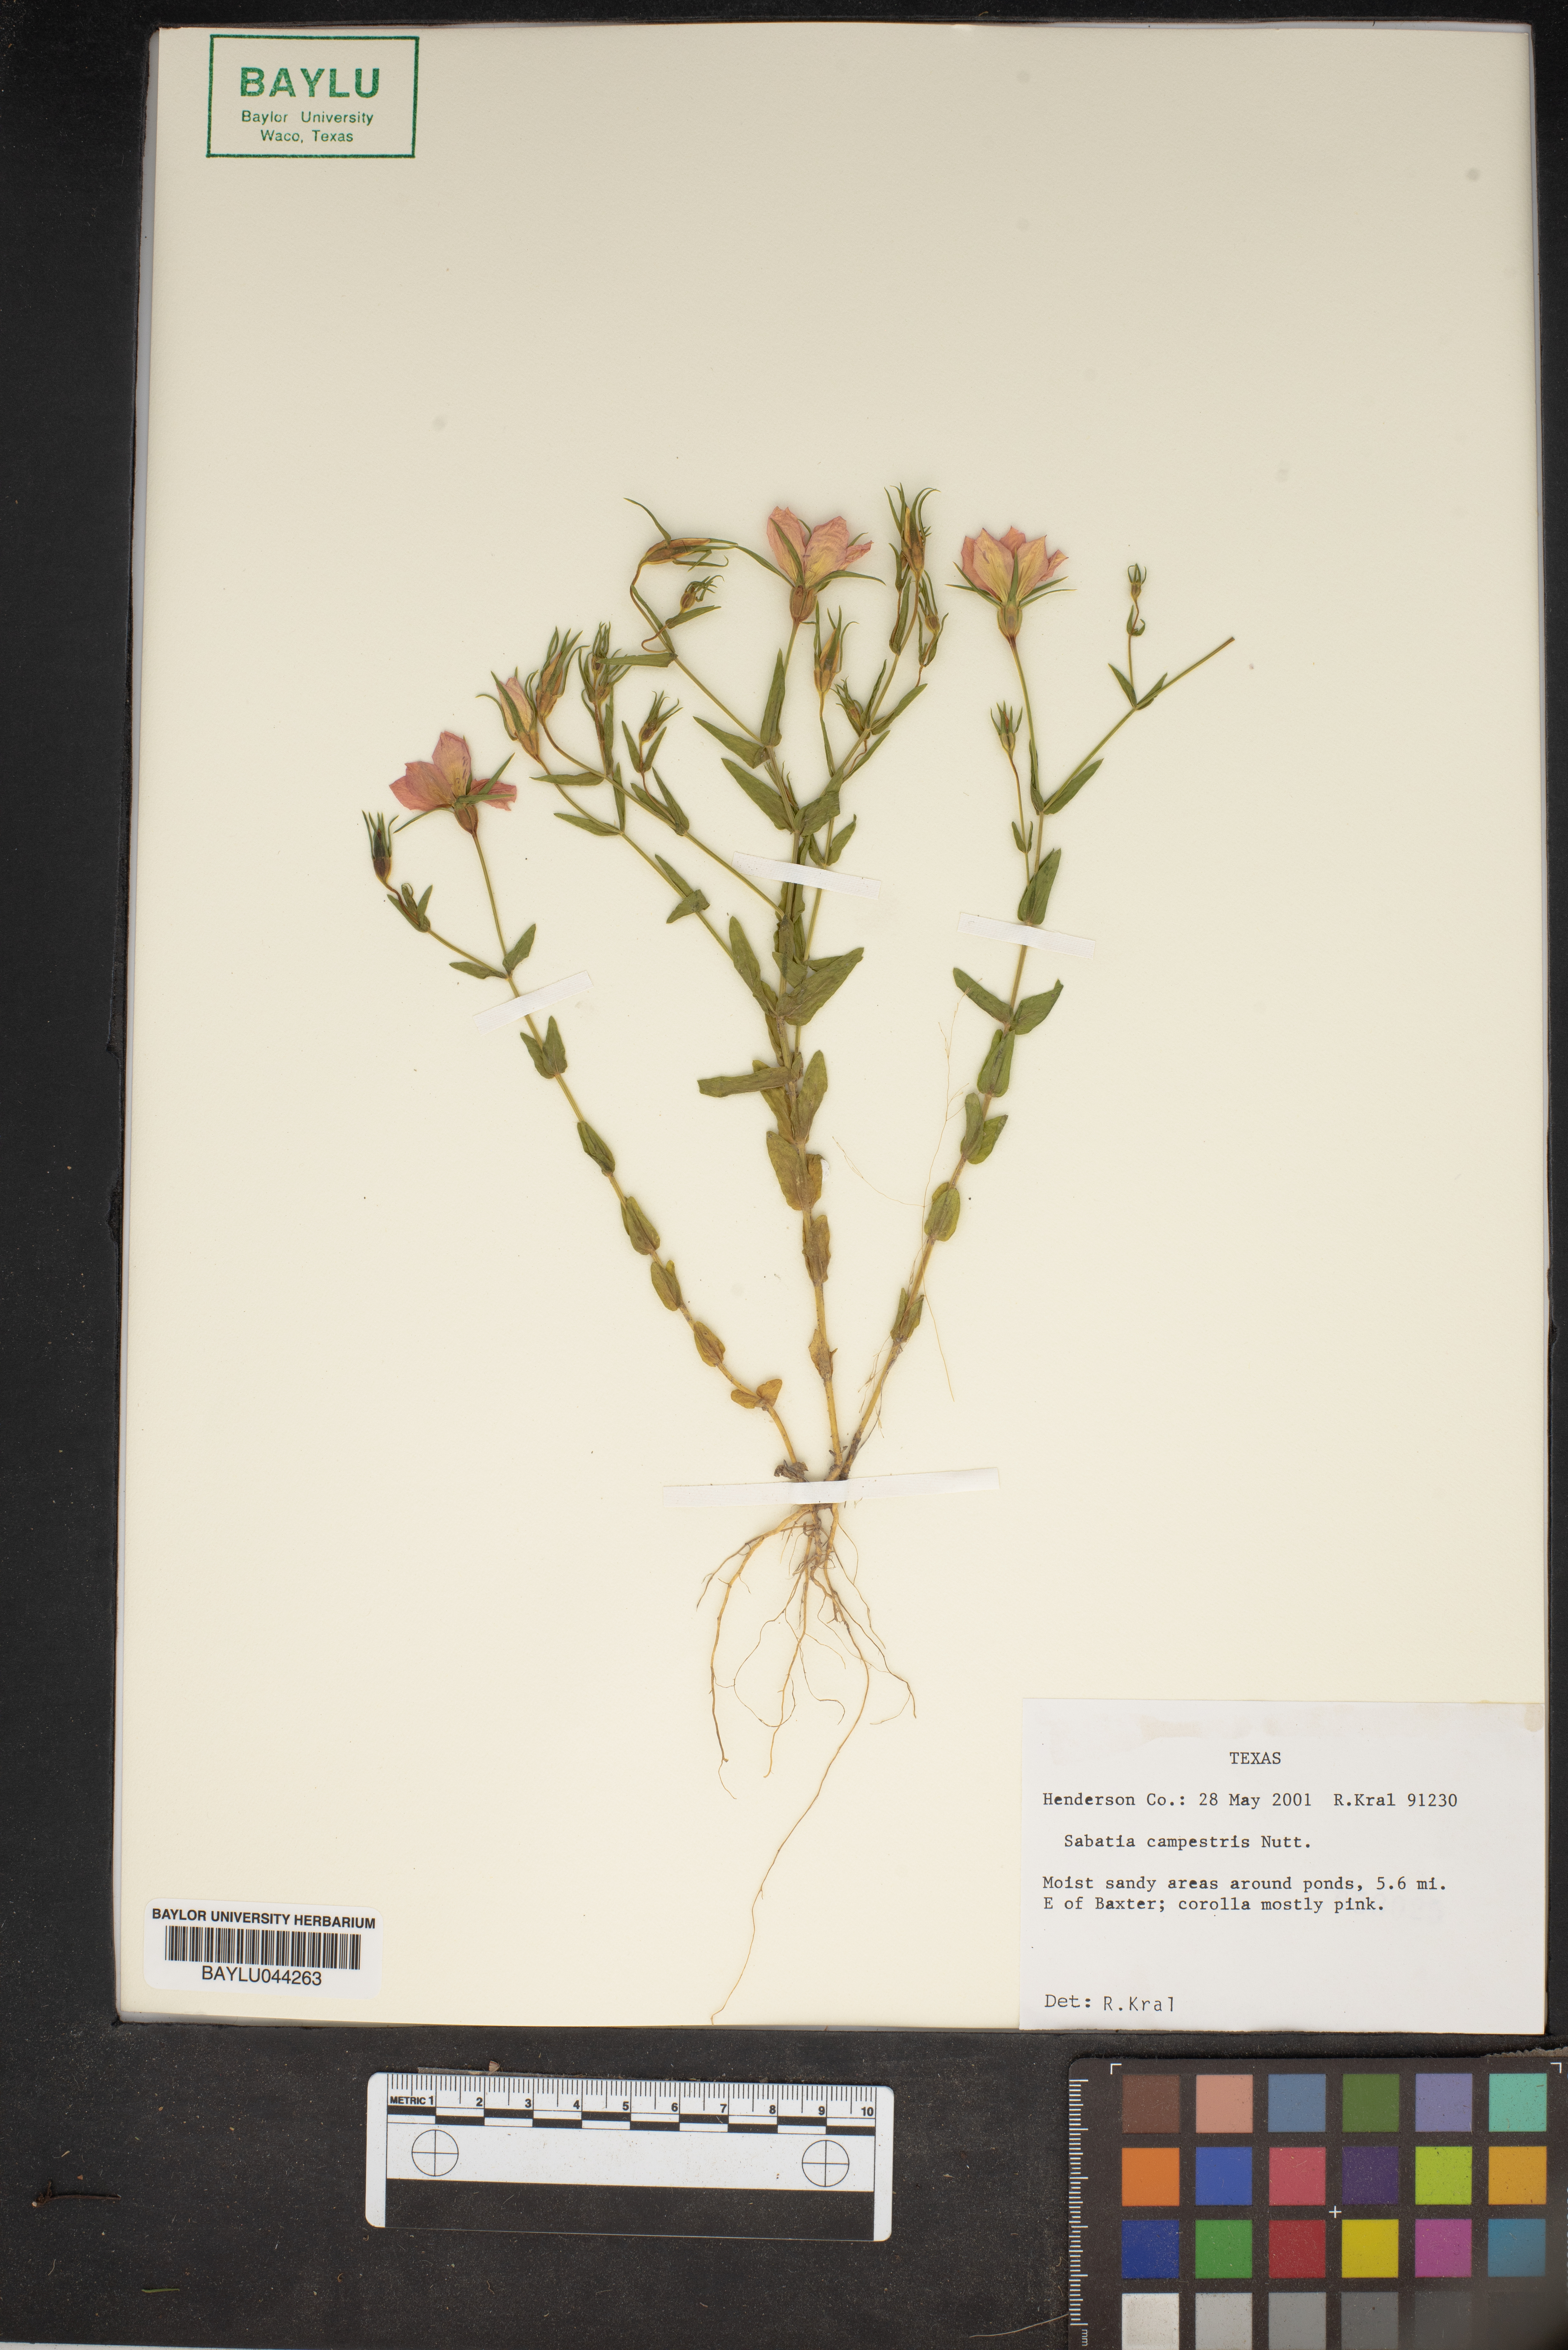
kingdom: Plantae
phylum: Tracheophyta
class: Magnoliopsida
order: Gentianales
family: Gentianaceae
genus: Sabatia
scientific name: Sabatia campestris
